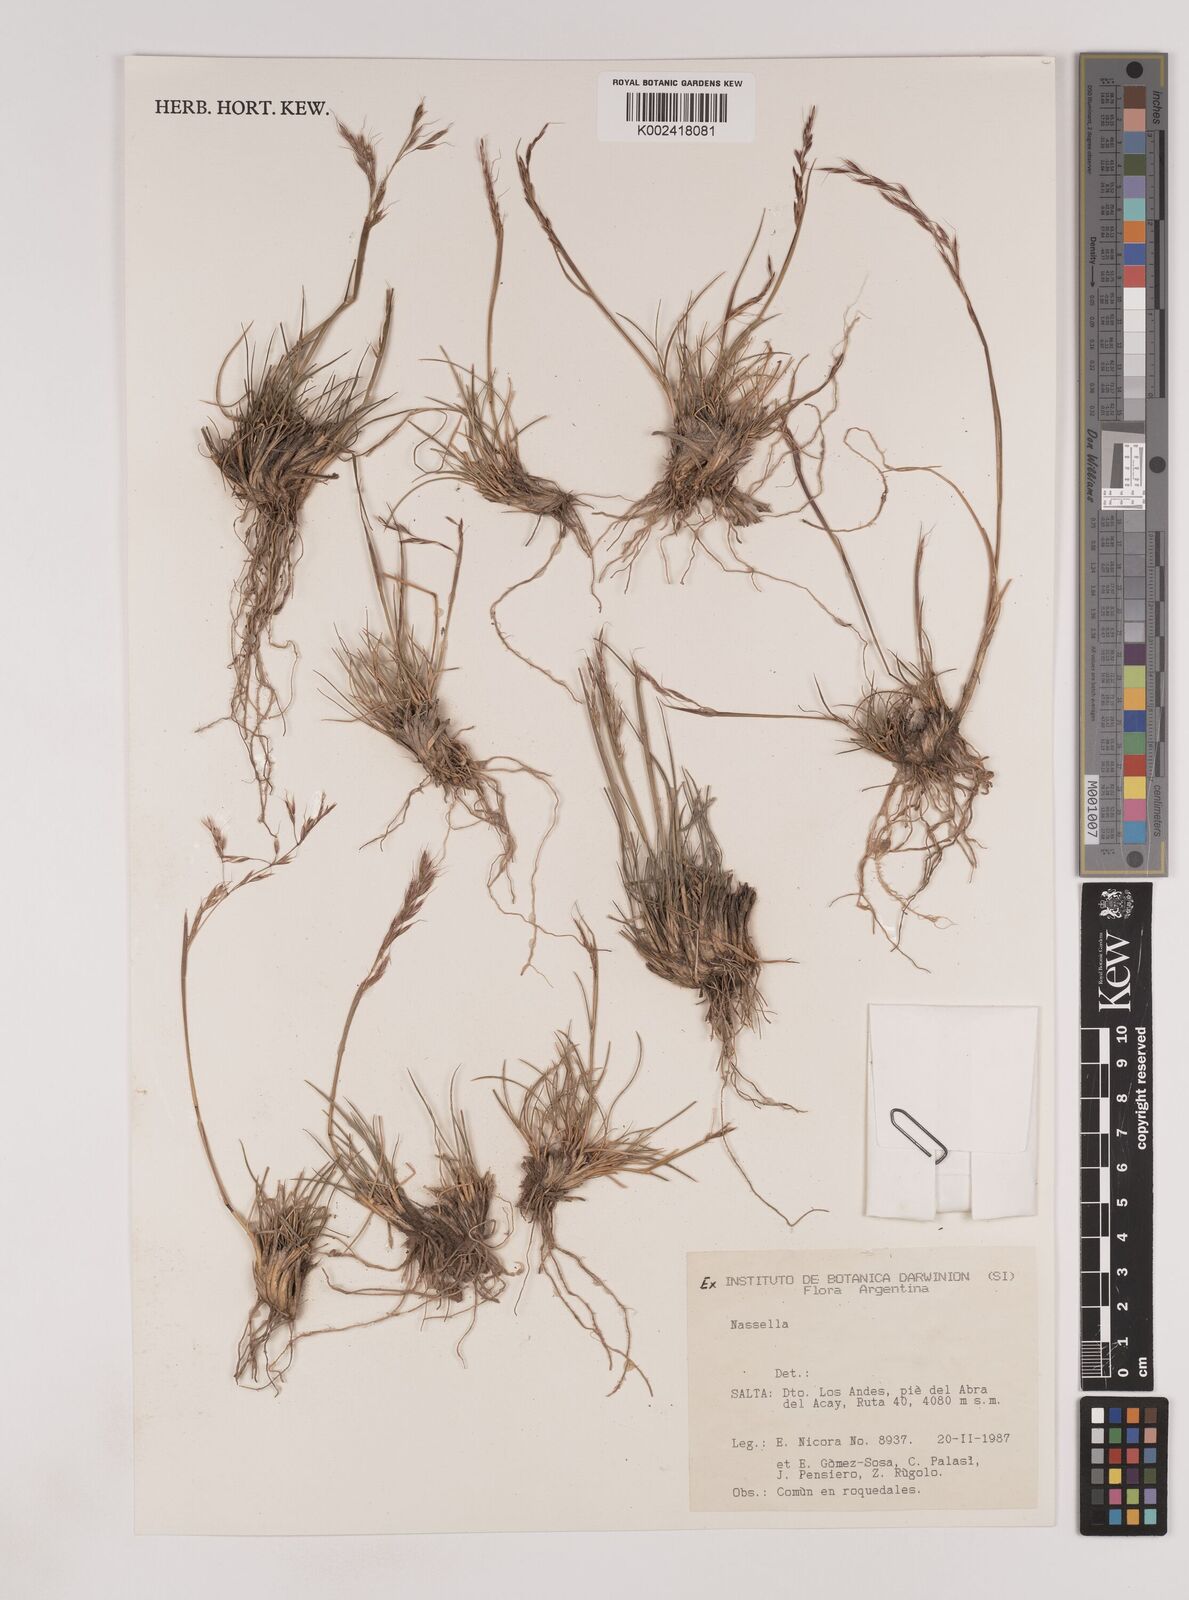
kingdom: Plantae
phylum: Tracheophyta
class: Liliopsida
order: Poales
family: Poaceae
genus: Nassella
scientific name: Nassella
